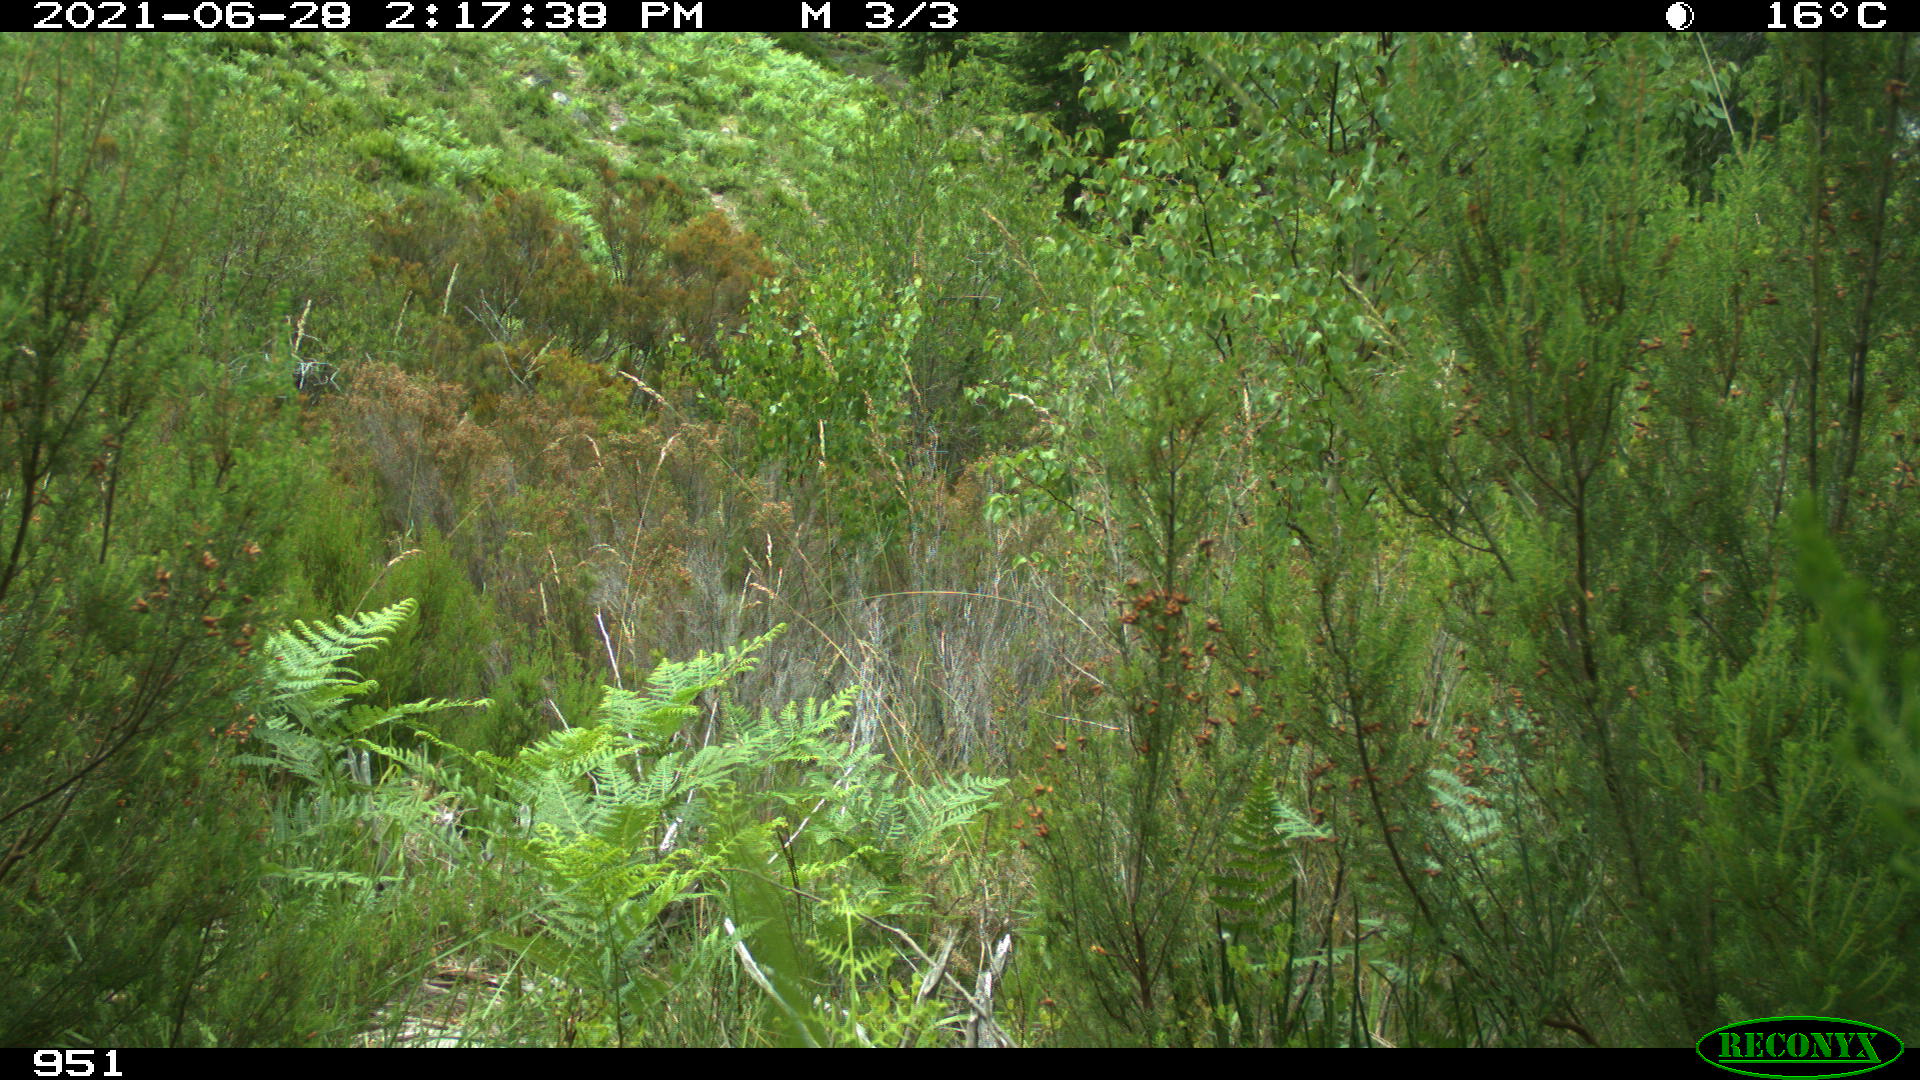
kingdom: Animalia
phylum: Chordata
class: Mammalia
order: Artiodactyla
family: Bovidae
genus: Bos
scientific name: Bos taurus
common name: Domesticated cattle
